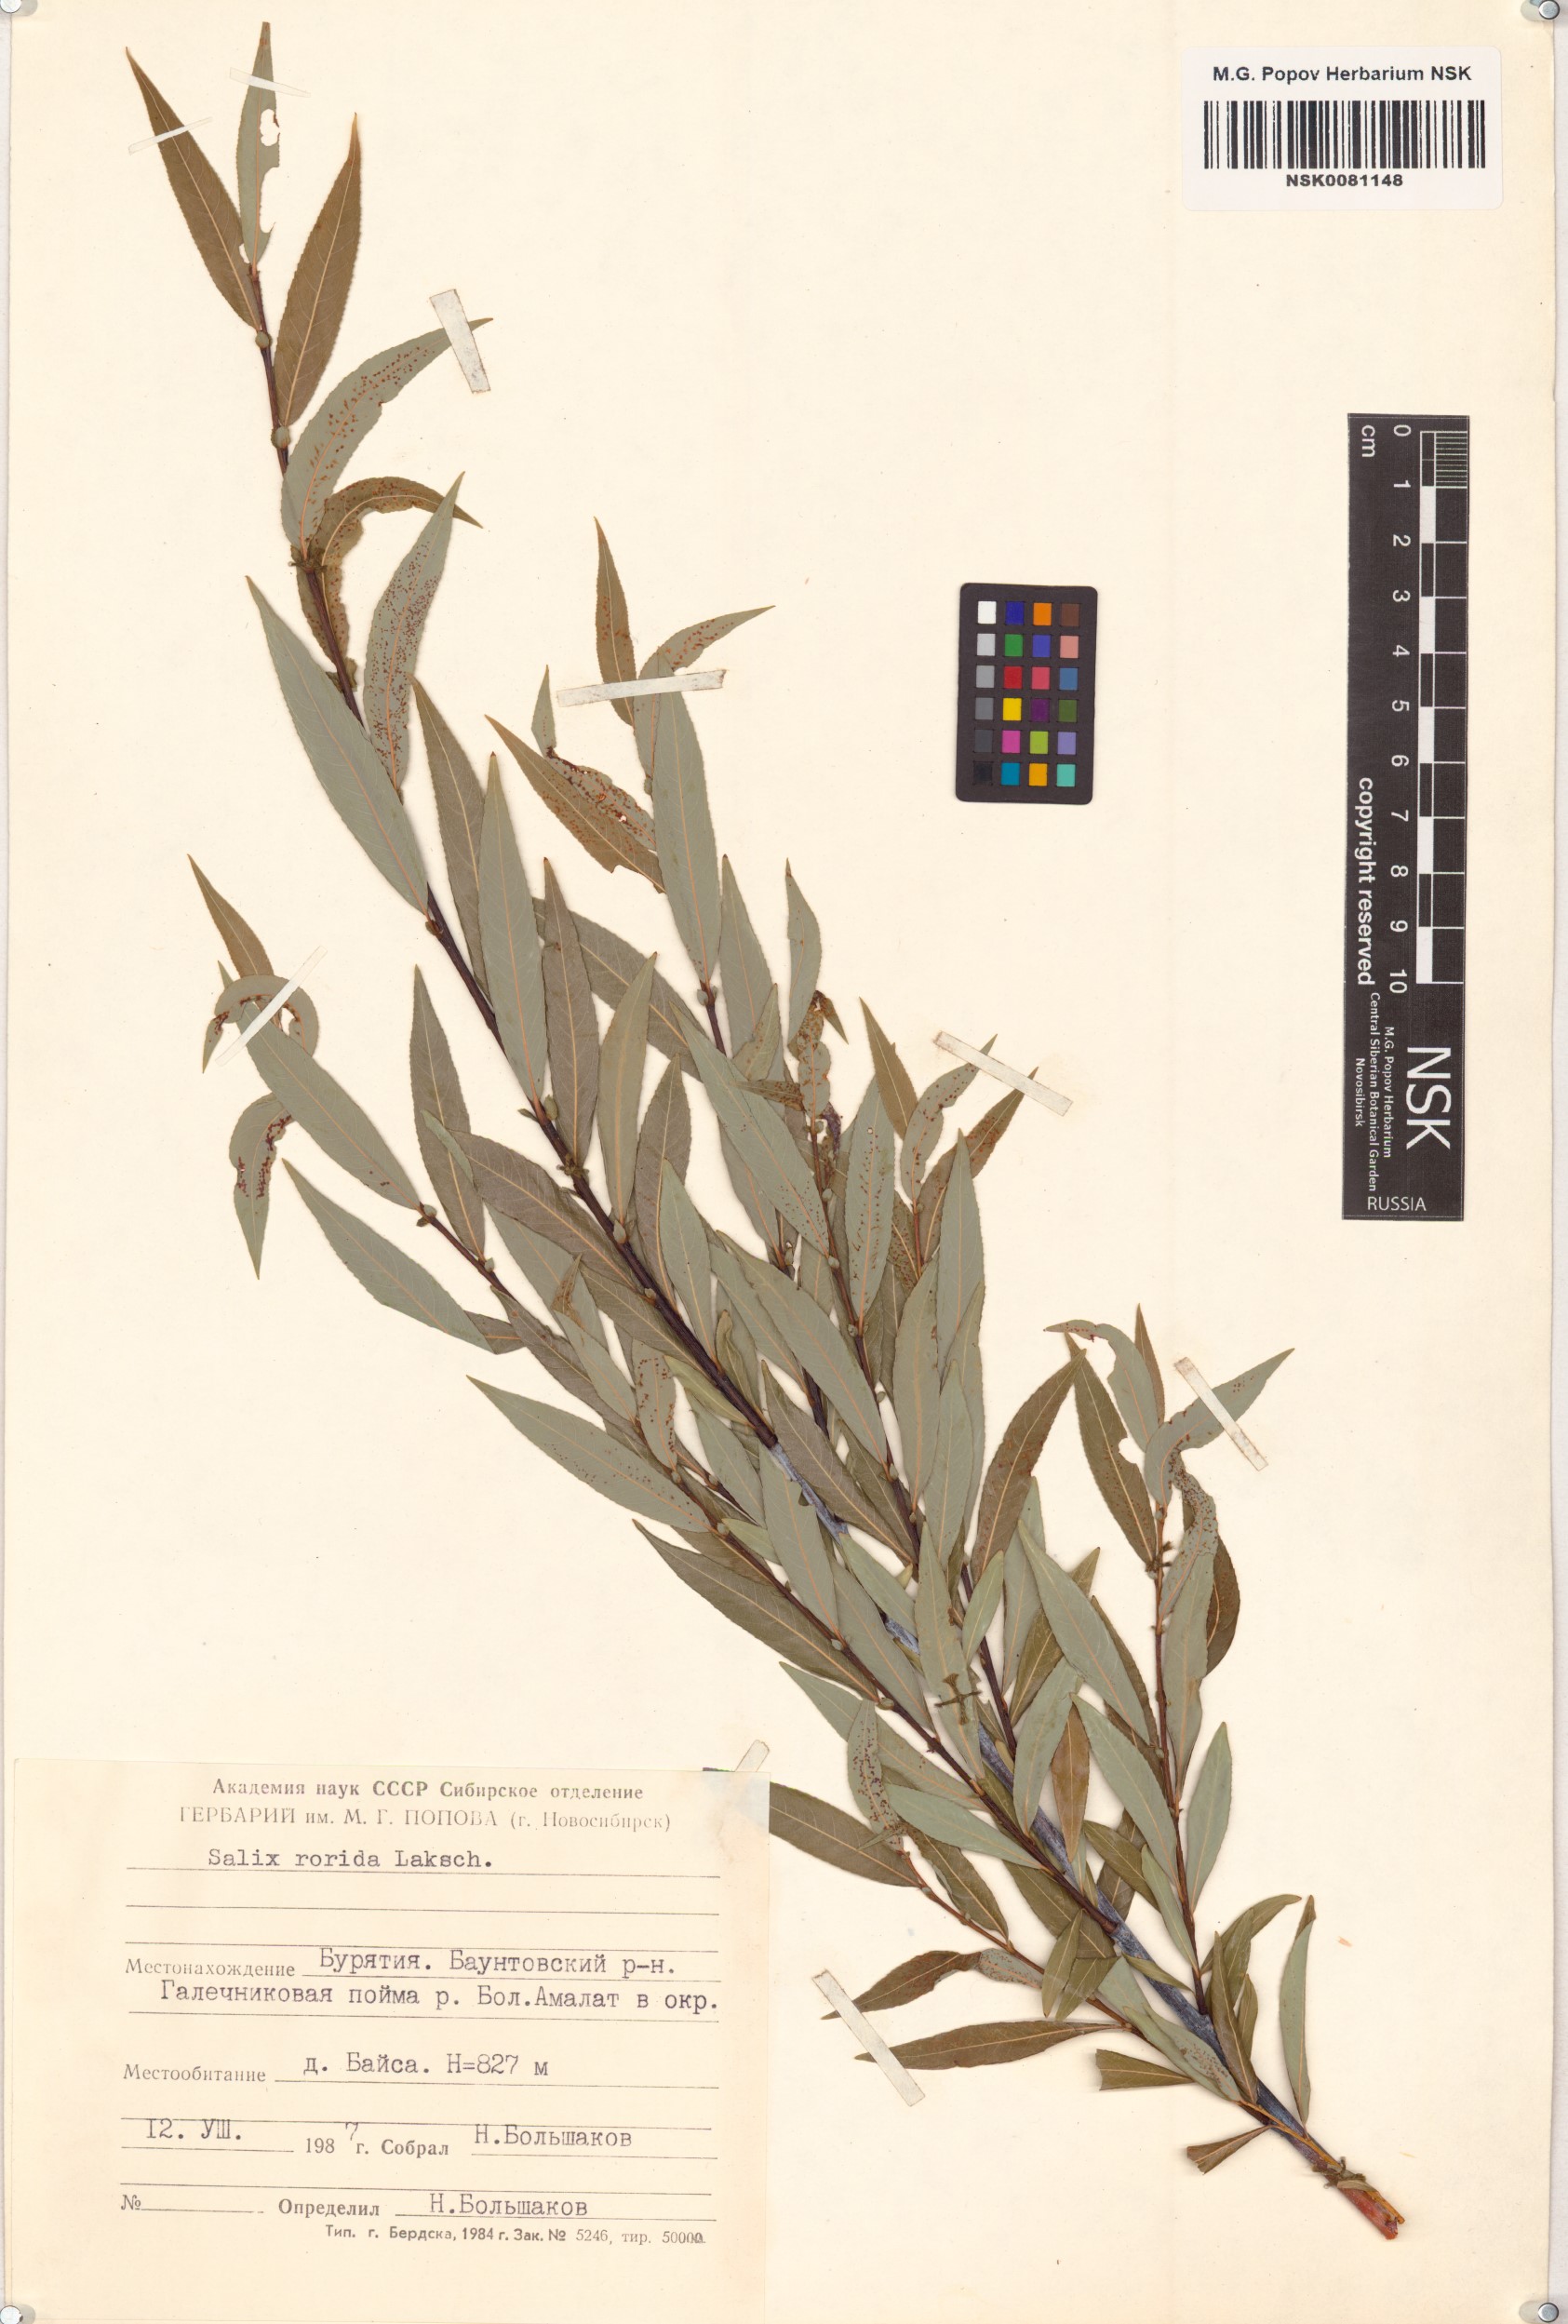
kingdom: Plantae
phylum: Tracheophyta
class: Magnoliopsida
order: Malpighiales
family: Salicaceae
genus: Salix
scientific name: Salix rorida
